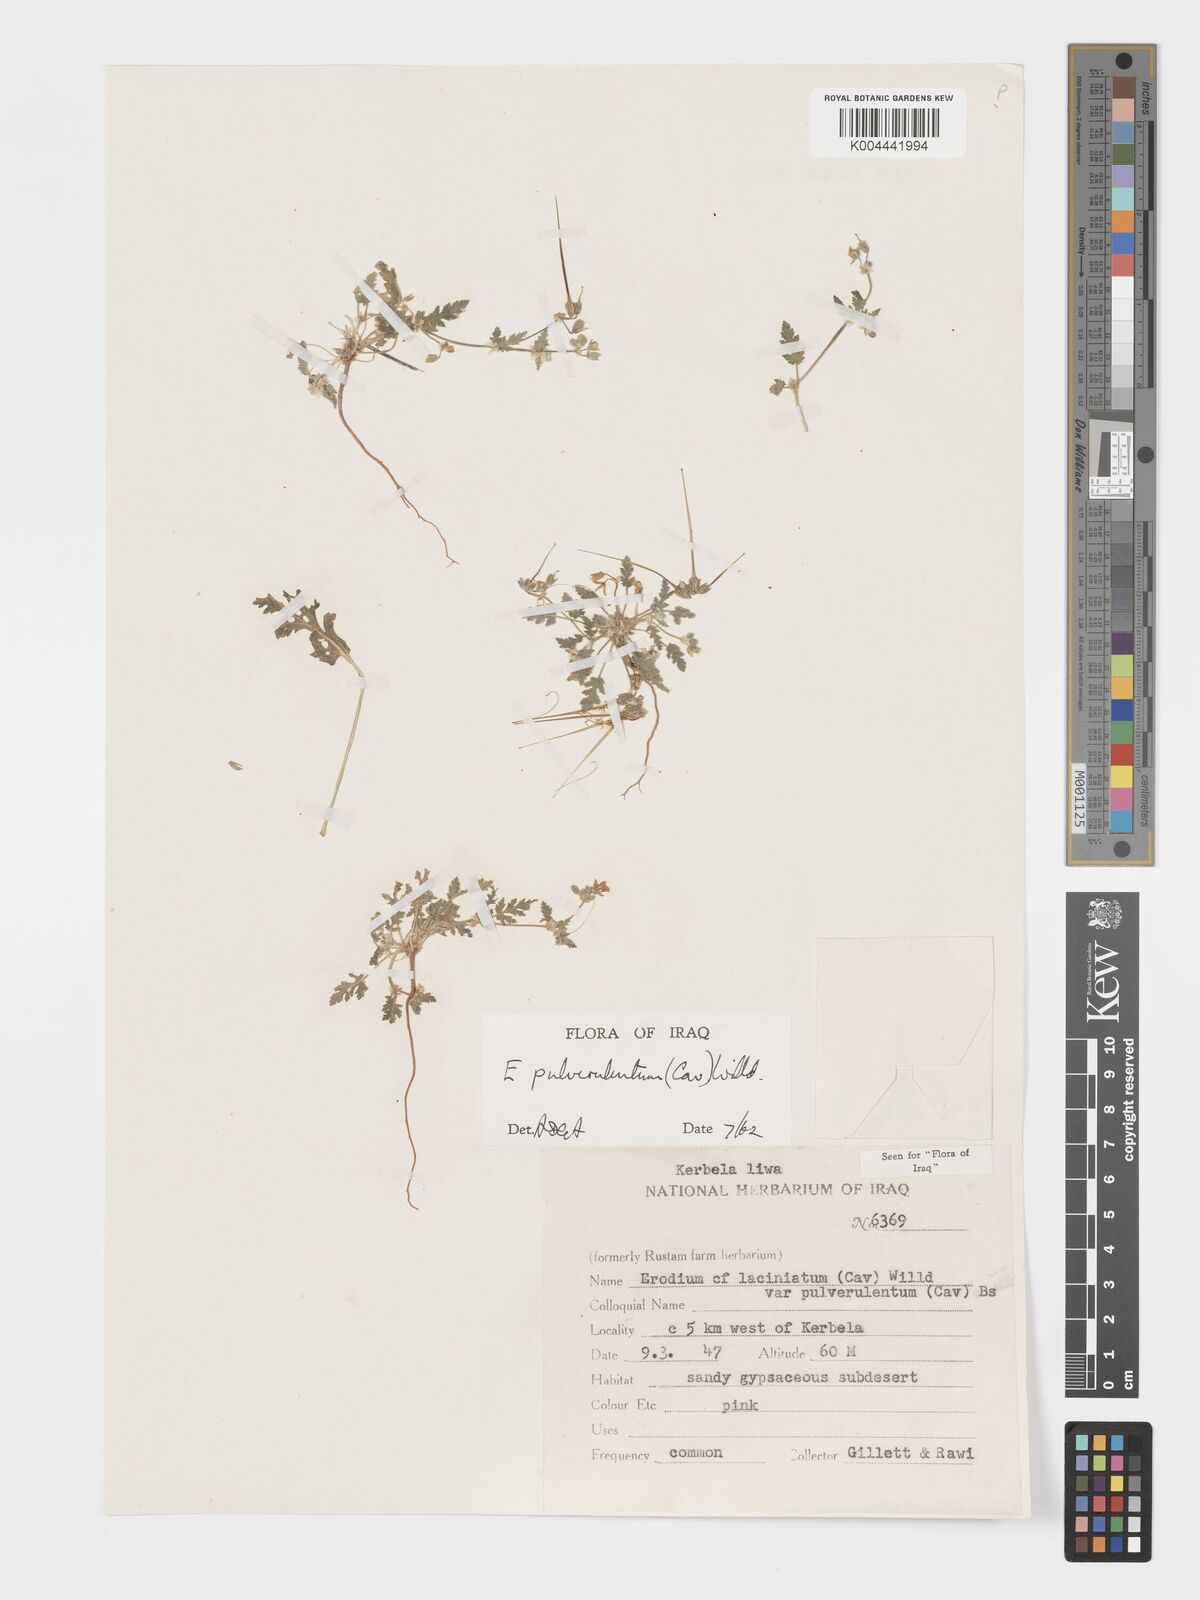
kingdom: Plantae
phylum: Tracheophyta
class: Magnoliopsida
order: Geraniales
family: Geraniaceae
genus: Erodium
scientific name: Erodium laciniatum
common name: Cutleaf stork's bill
